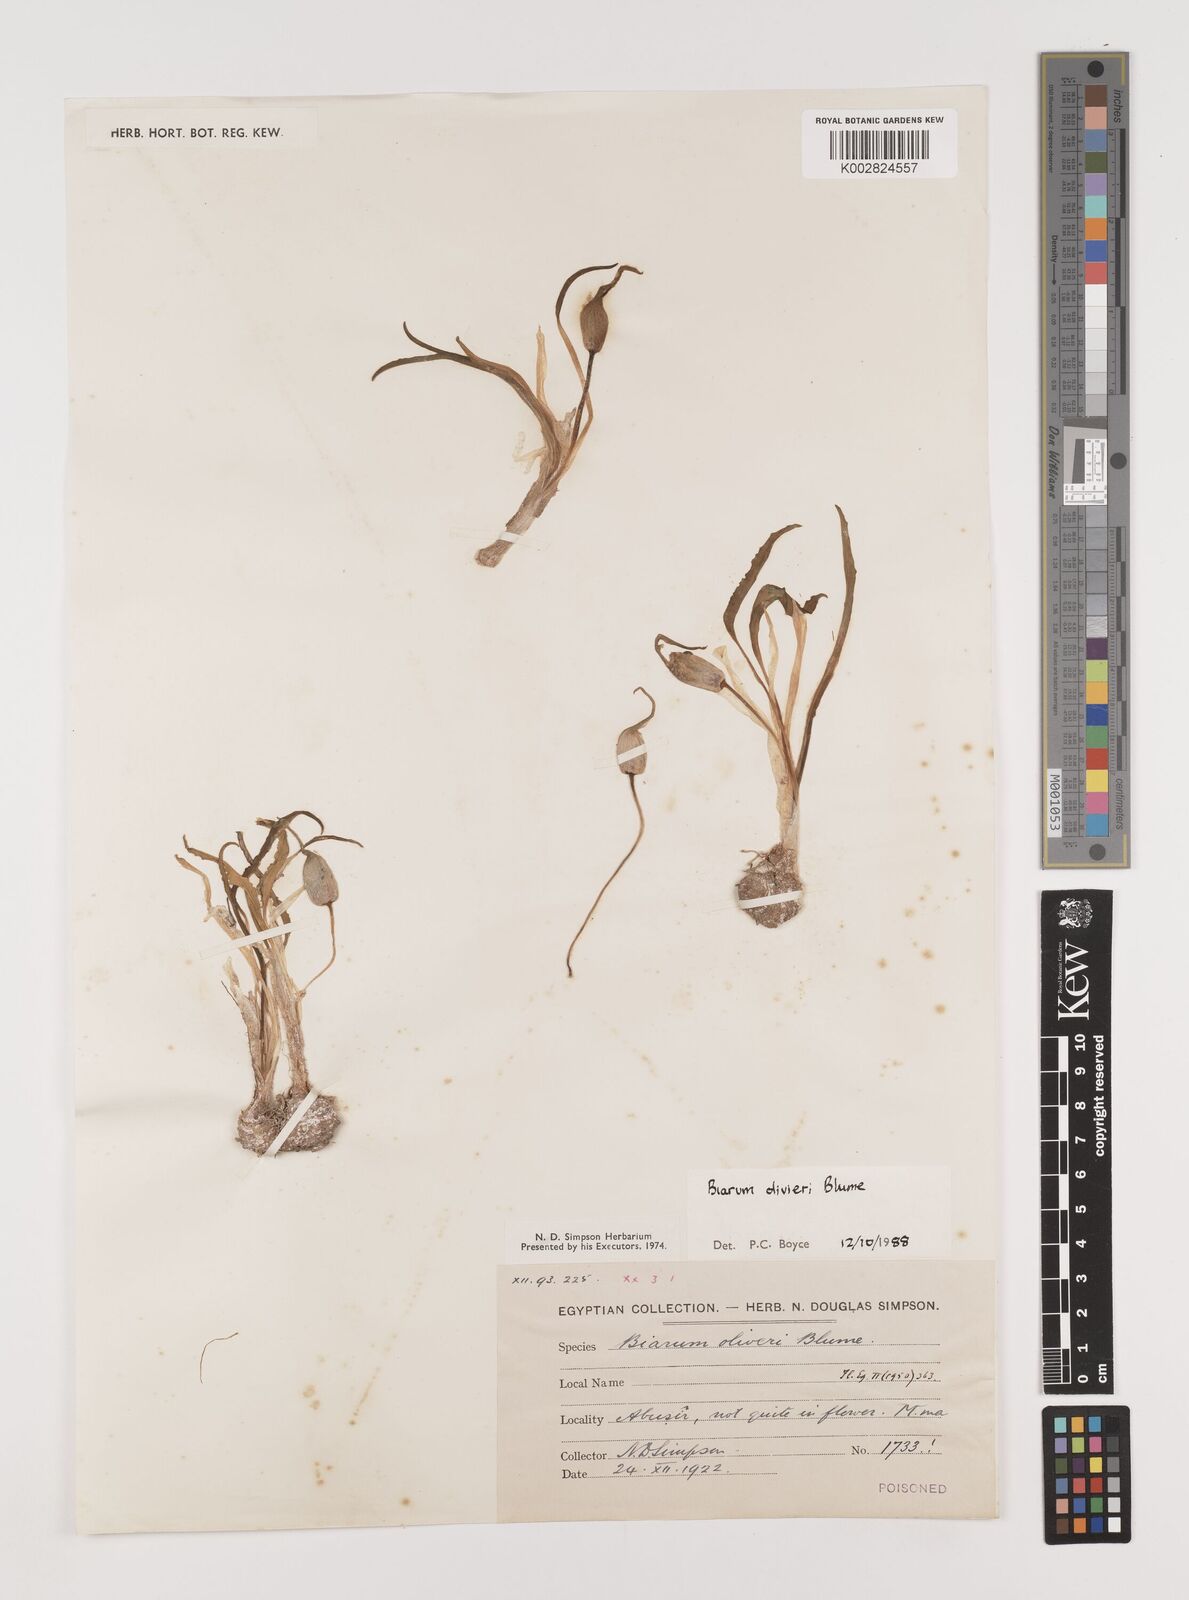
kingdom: Plantae
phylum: Tracheophyta
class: Liliopsida
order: Alismatales
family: Araceae
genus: Biarum
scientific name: Biarum olivieri
